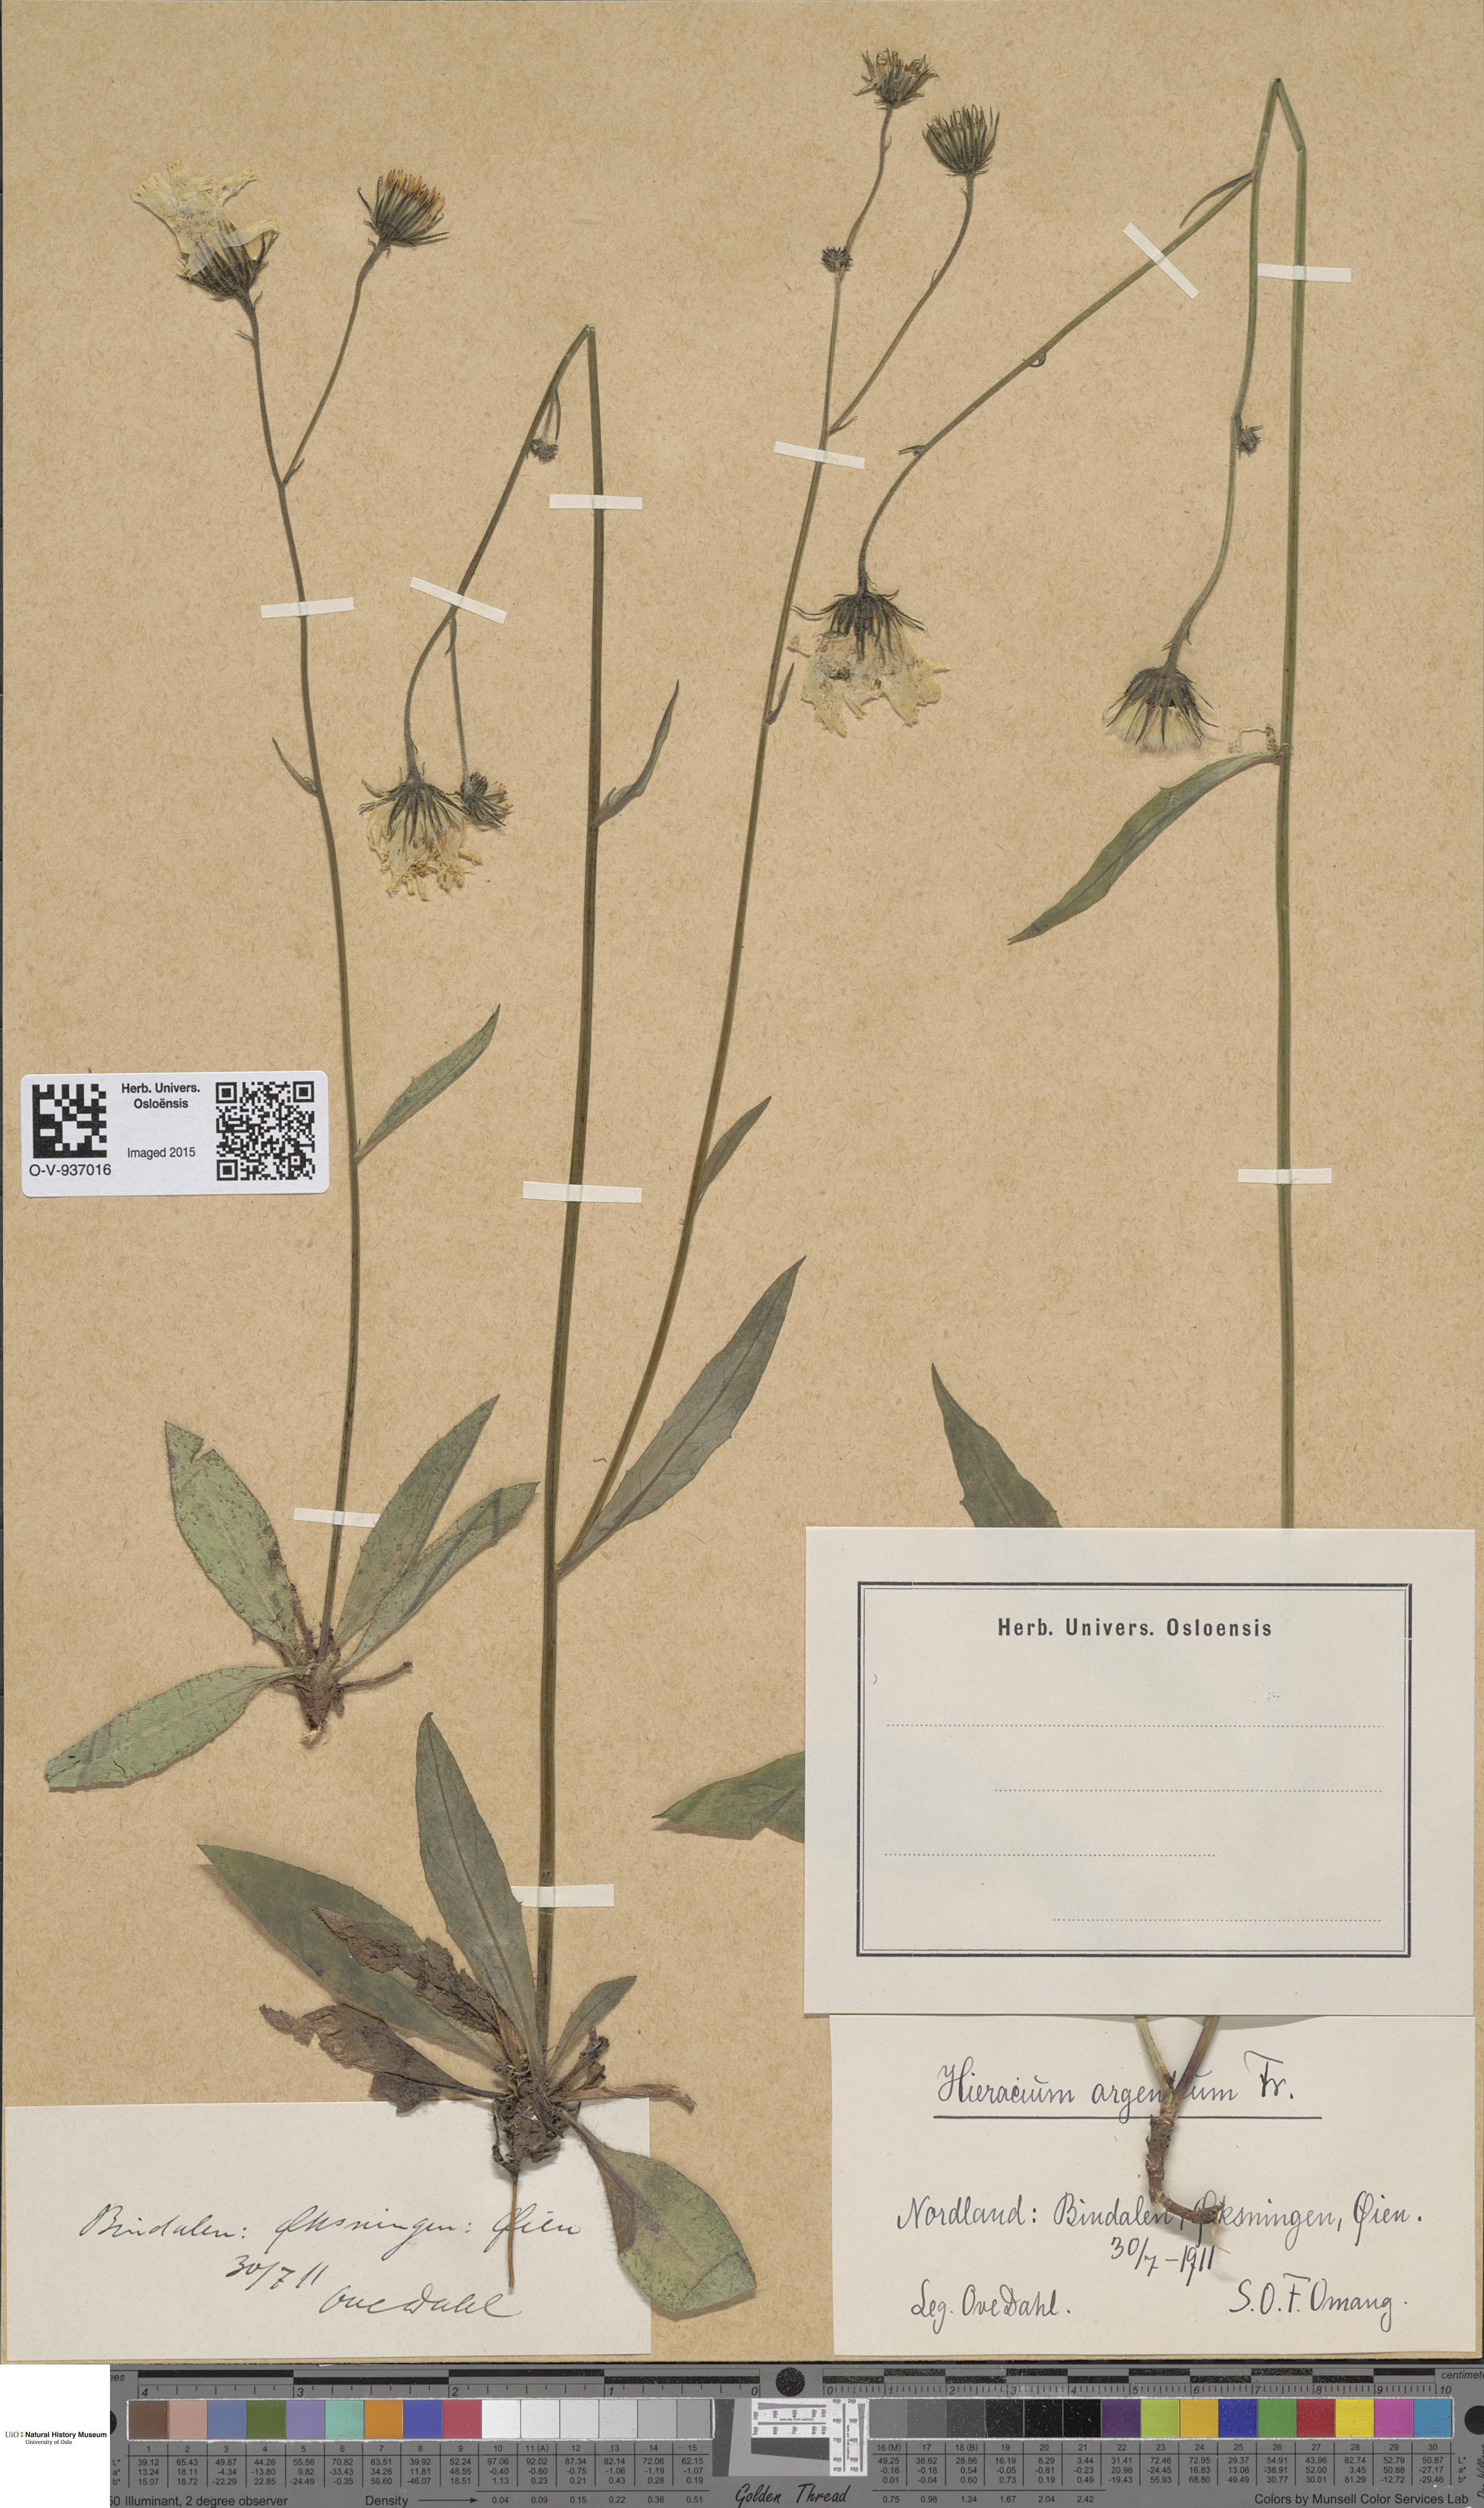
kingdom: Plantae
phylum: Tracheophyta
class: Magnoliopsida
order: Asterales
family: Asteraceae
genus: Hieracium
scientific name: Hieracium argenteum
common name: Silver hawkweed
